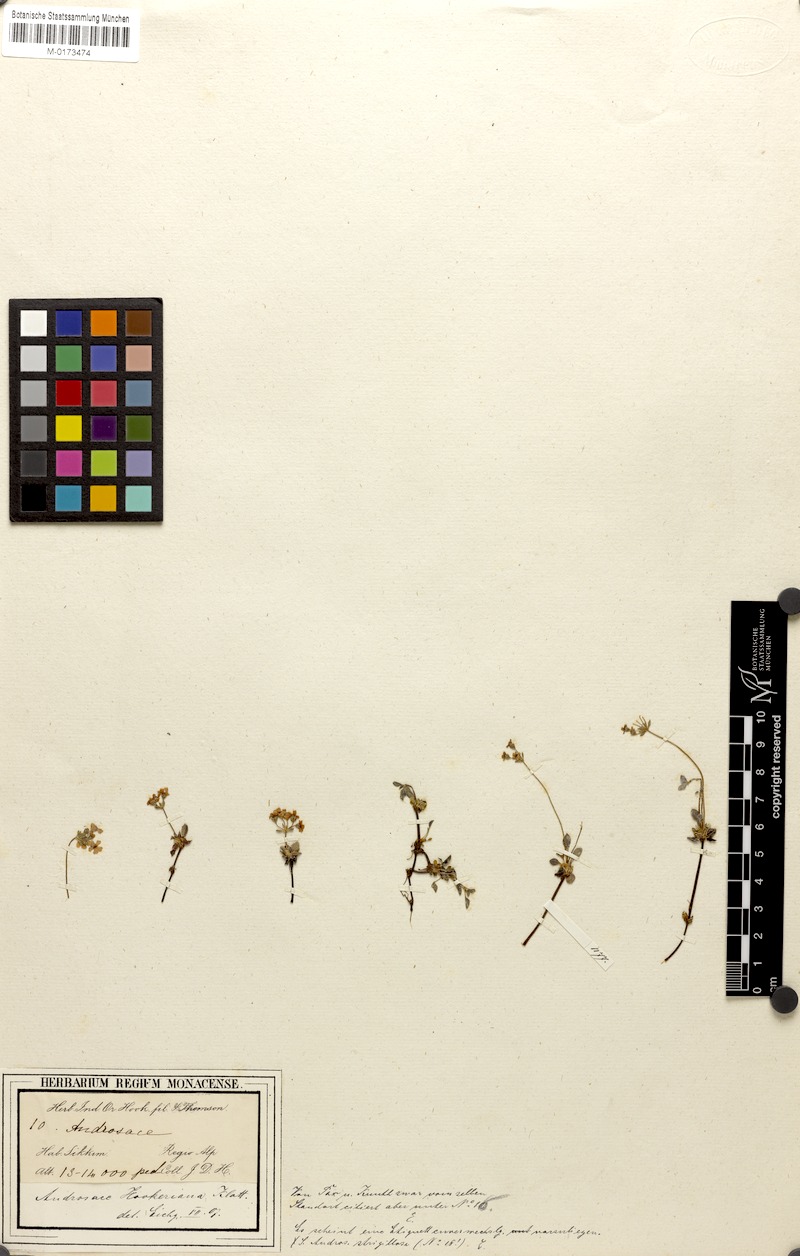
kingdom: Plantae
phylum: Tracheophyta
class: Magnoliopsida
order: Ericales
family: Primulaceae
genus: Androsace
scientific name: Androsace hookeriana
